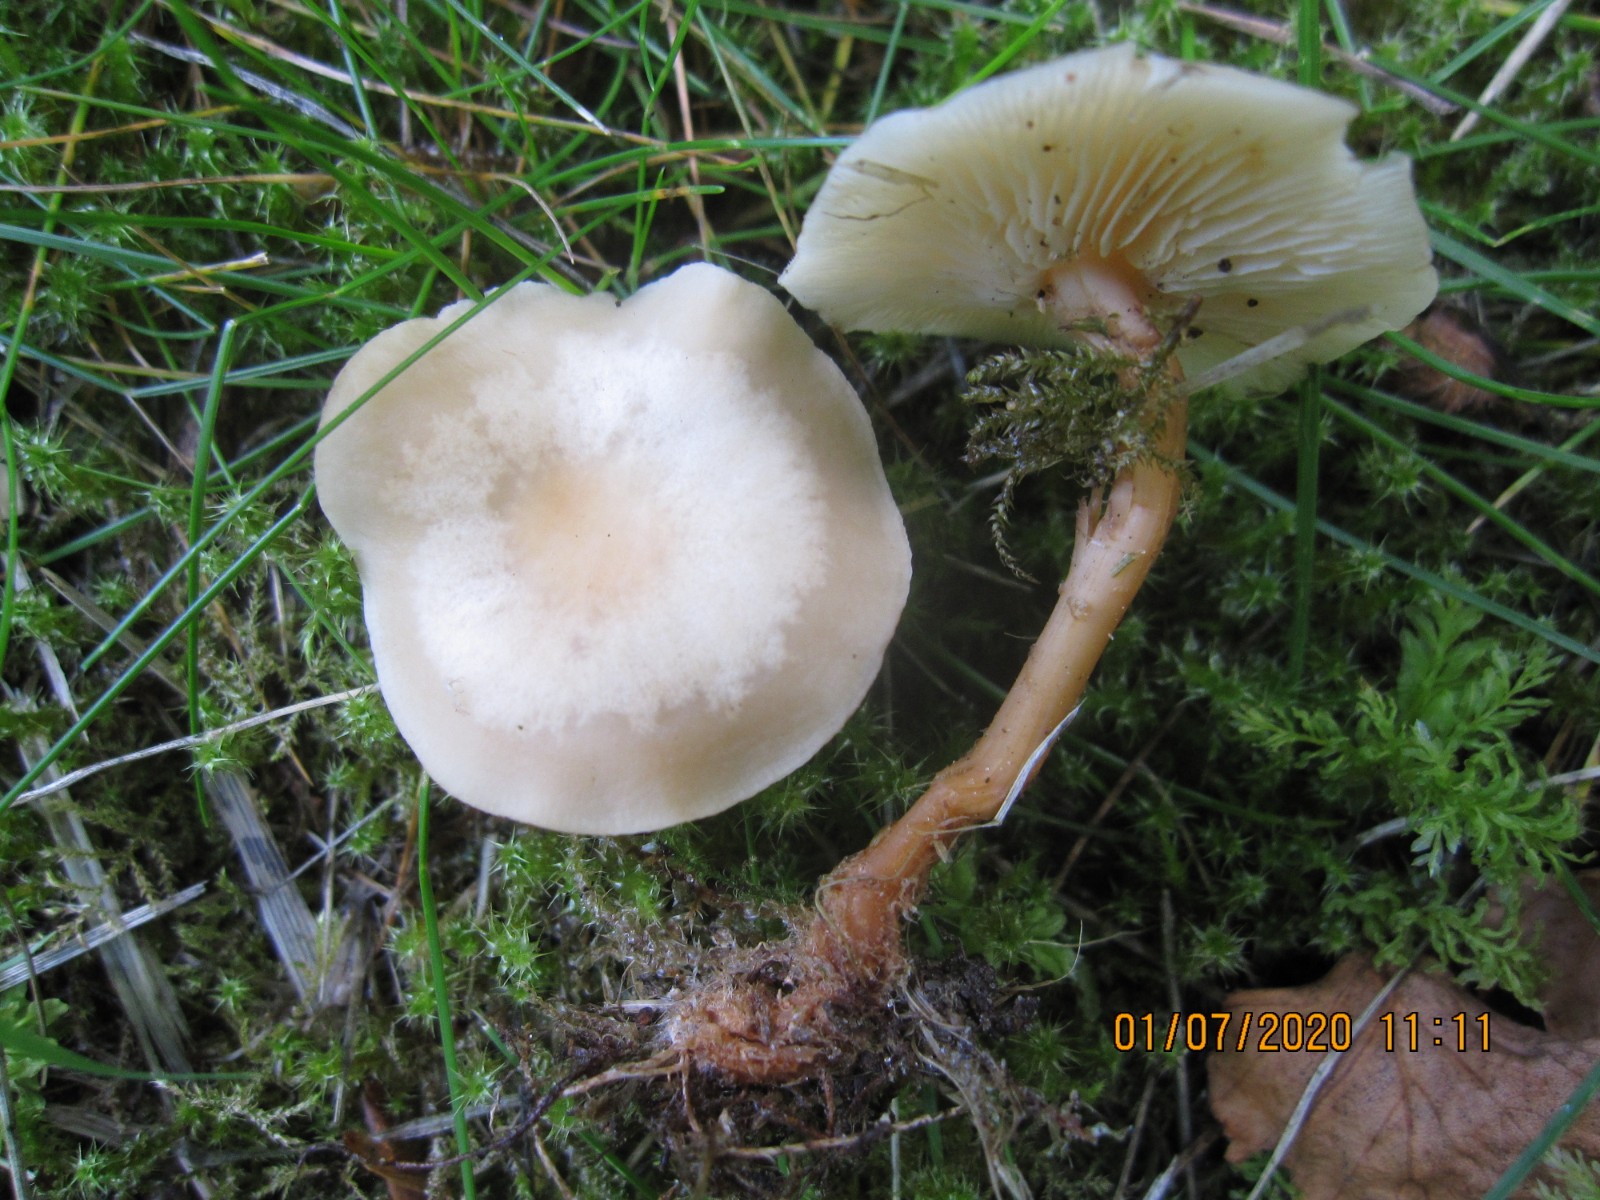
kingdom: Fungi
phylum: Basidiomycota
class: Agaricomycetes
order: Agaricales
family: Omphalotaceae
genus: Gymnopus
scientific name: Gymnopus aquosus
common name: bleg fladhat
